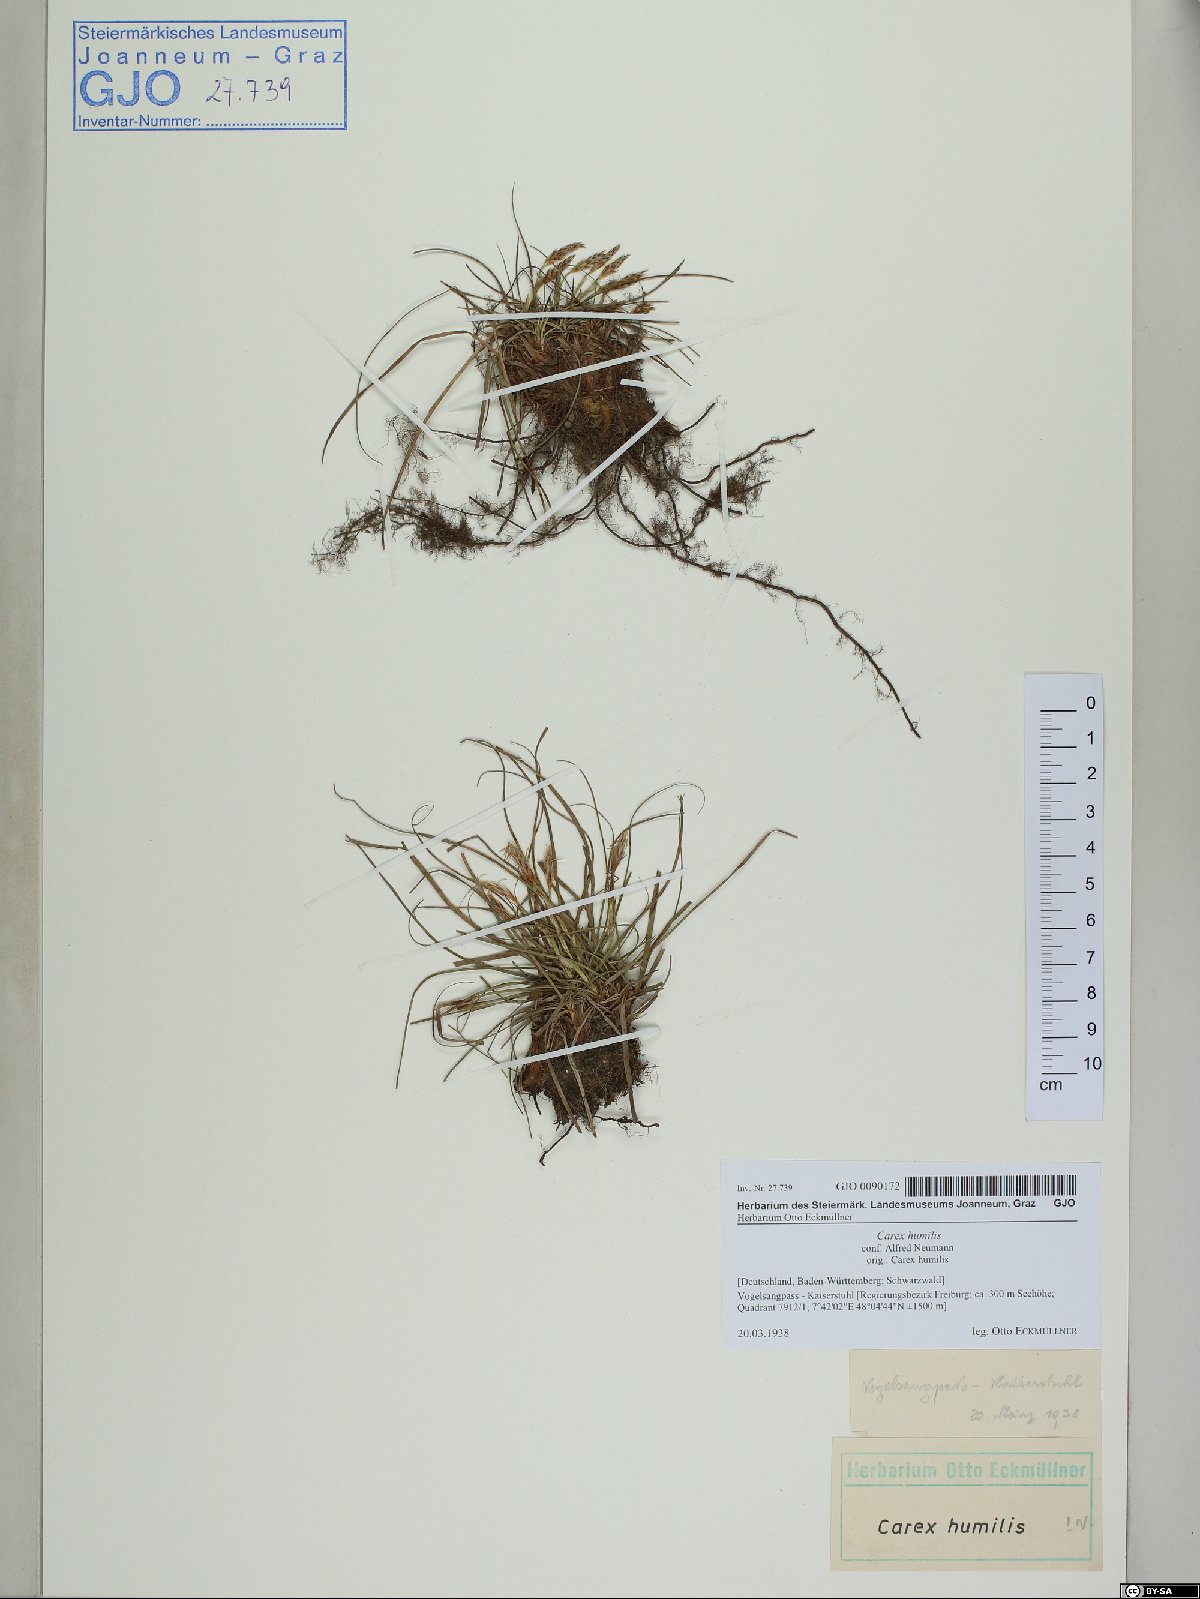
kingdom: Plantae
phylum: Tracheophyta
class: Liliopsida
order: Poales
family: Cyperaceae
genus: Carex
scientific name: Carex humilis
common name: Dwarf sedge
